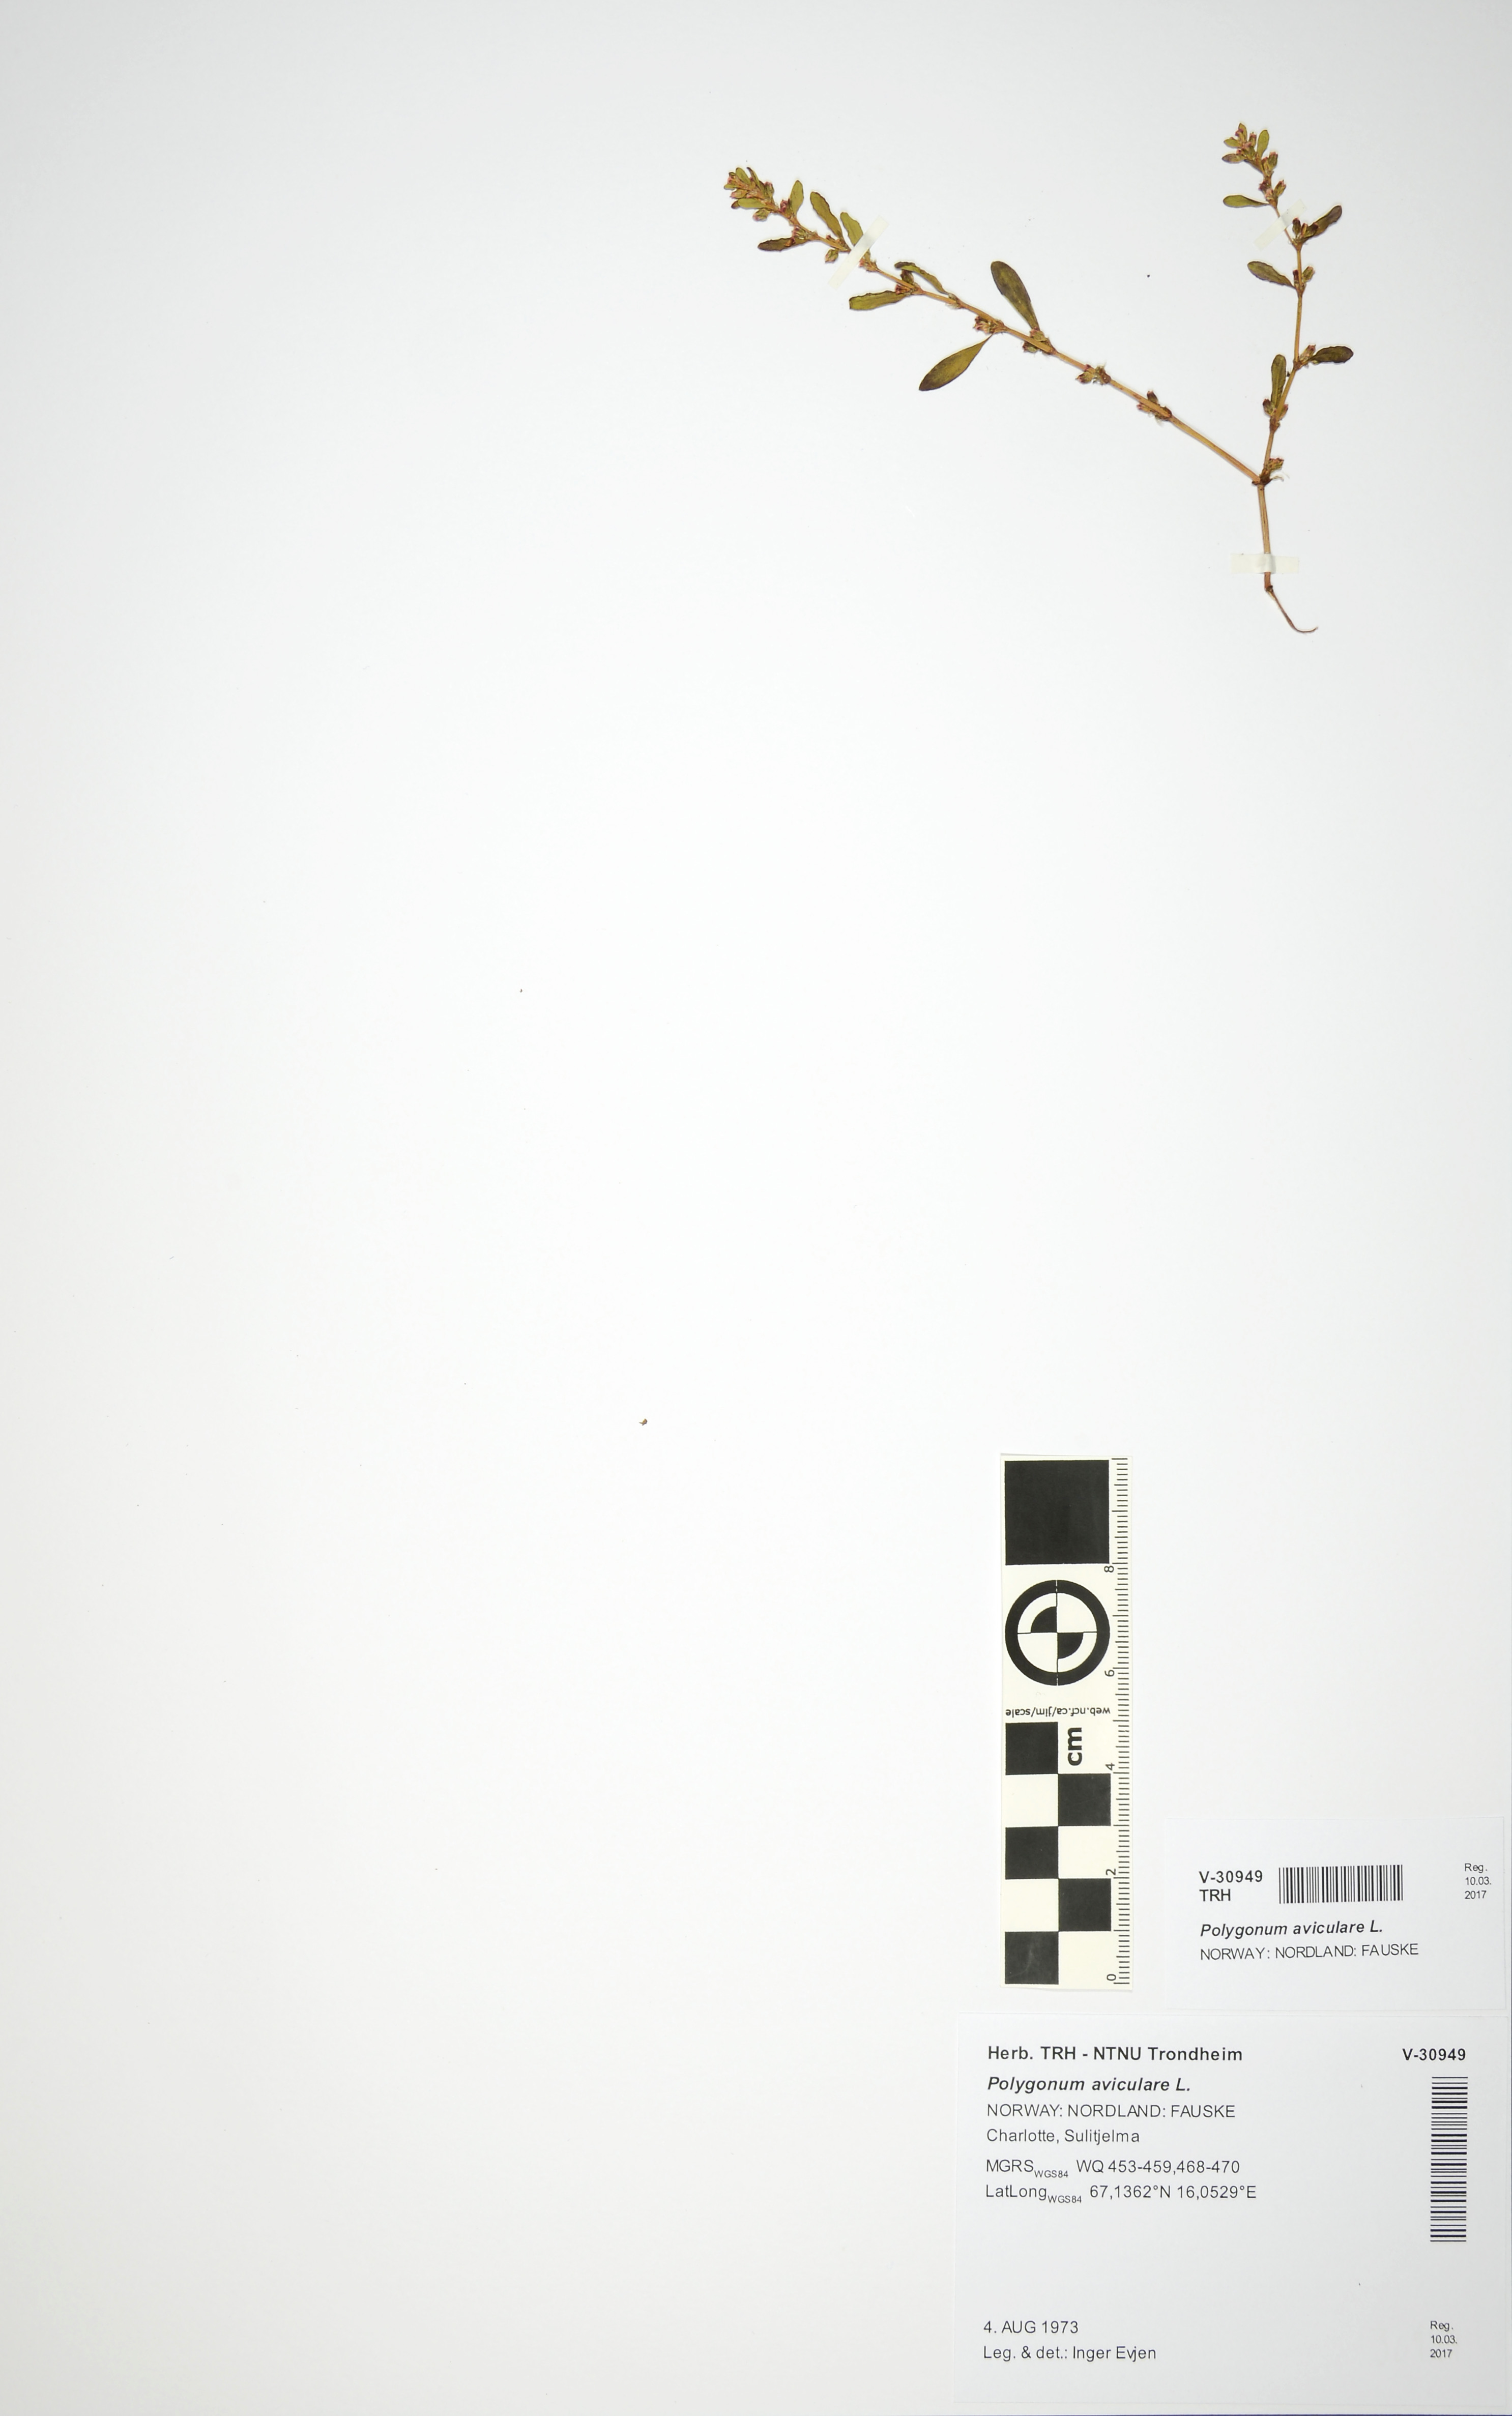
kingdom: Plantae
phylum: Tracheophyta
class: Magnoliopsida
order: Caryophyllales
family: Polygonaceae
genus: Polygonum
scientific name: Polygonum aviculare
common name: Prostrate knotweed
